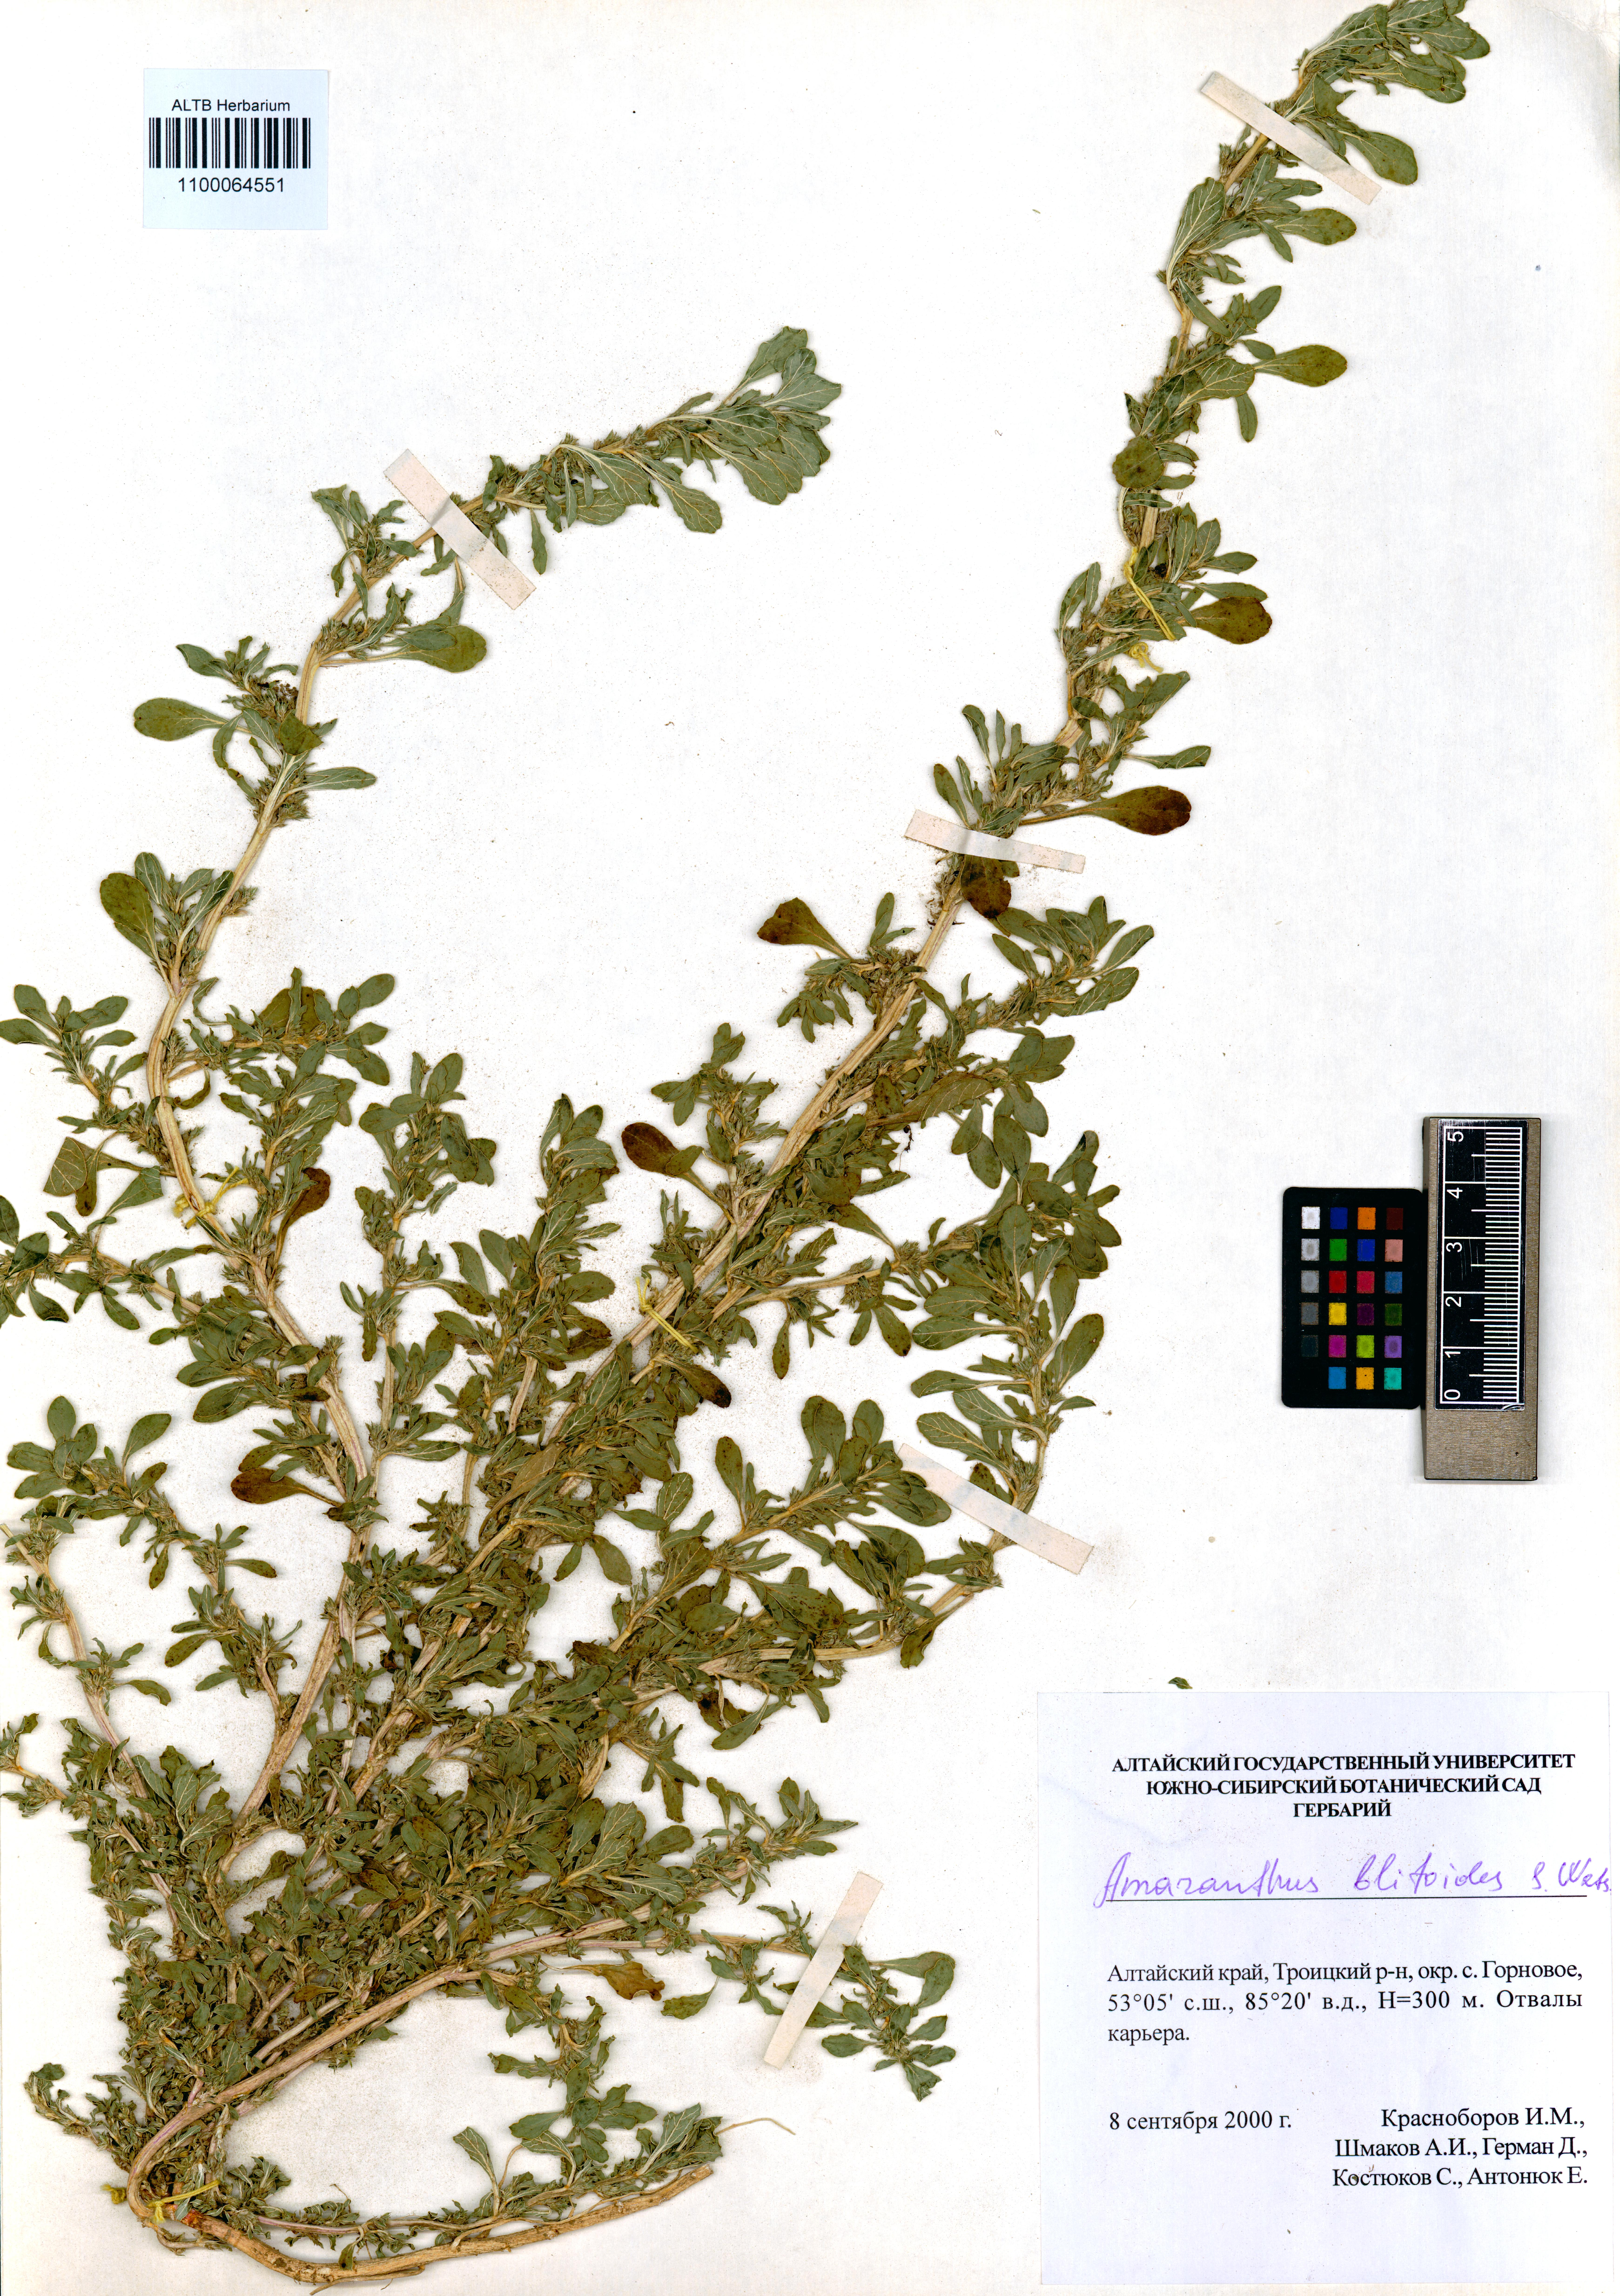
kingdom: Plantae
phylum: Tracheophyta
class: Magnoliopsida
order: Caryophyllales
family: Amaranthaceae
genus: Amaranthus
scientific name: Amaranthus blitoides
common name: Prostrate pigweed
